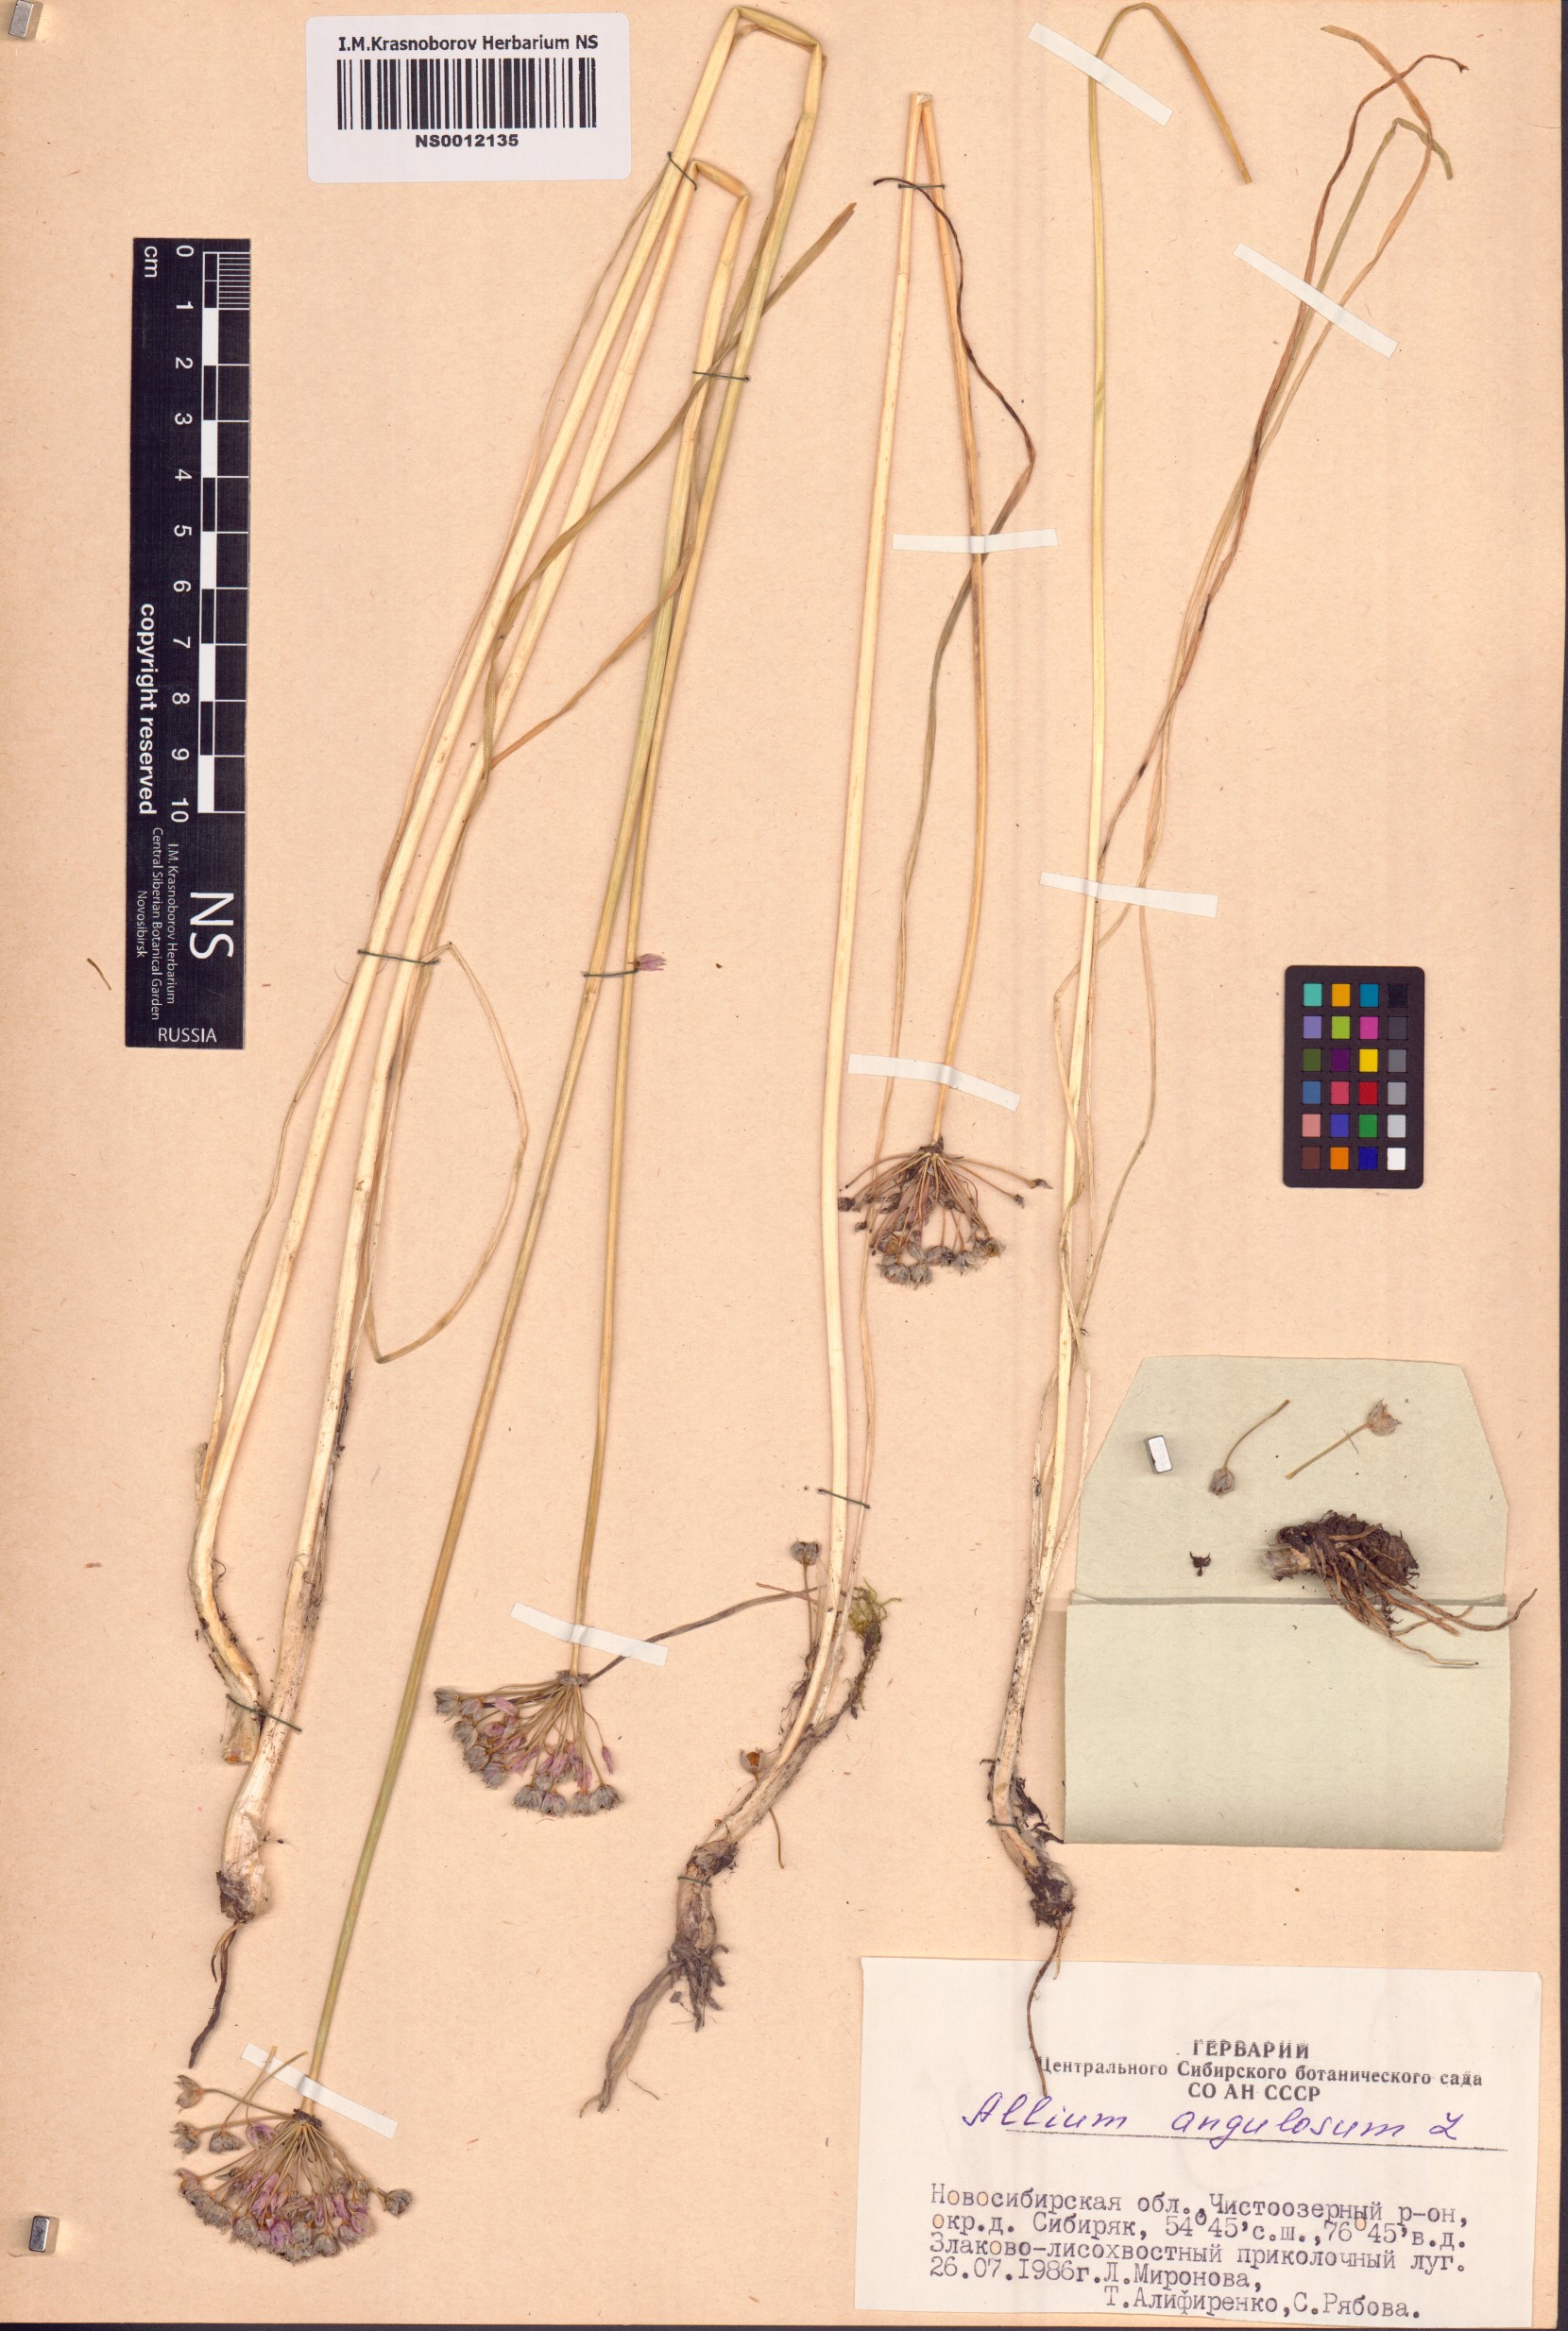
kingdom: Plantae
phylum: Tracheophyta
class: Liliopsida
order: Asparagales
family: Amaryllidaceae
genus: Allium
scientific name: Allium angulosum
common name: Mouse garlic
